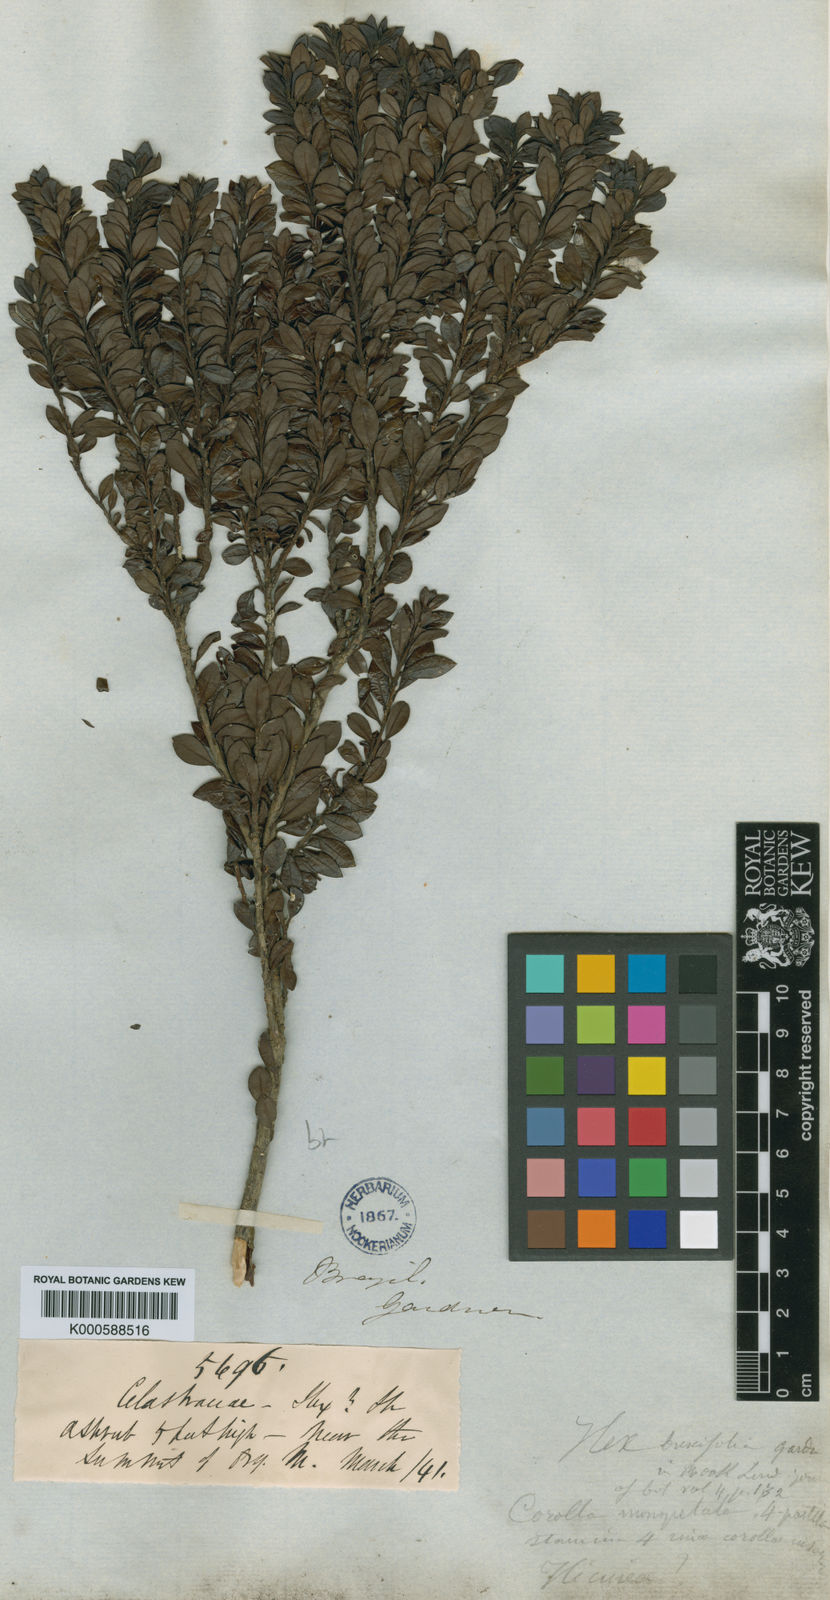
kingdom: Plantae
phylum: Tracheophyta
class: Magnoliopsida
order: Aquifoliales
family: Aquifoliaceae
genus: Ilex
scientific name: Ilex buxifolia
